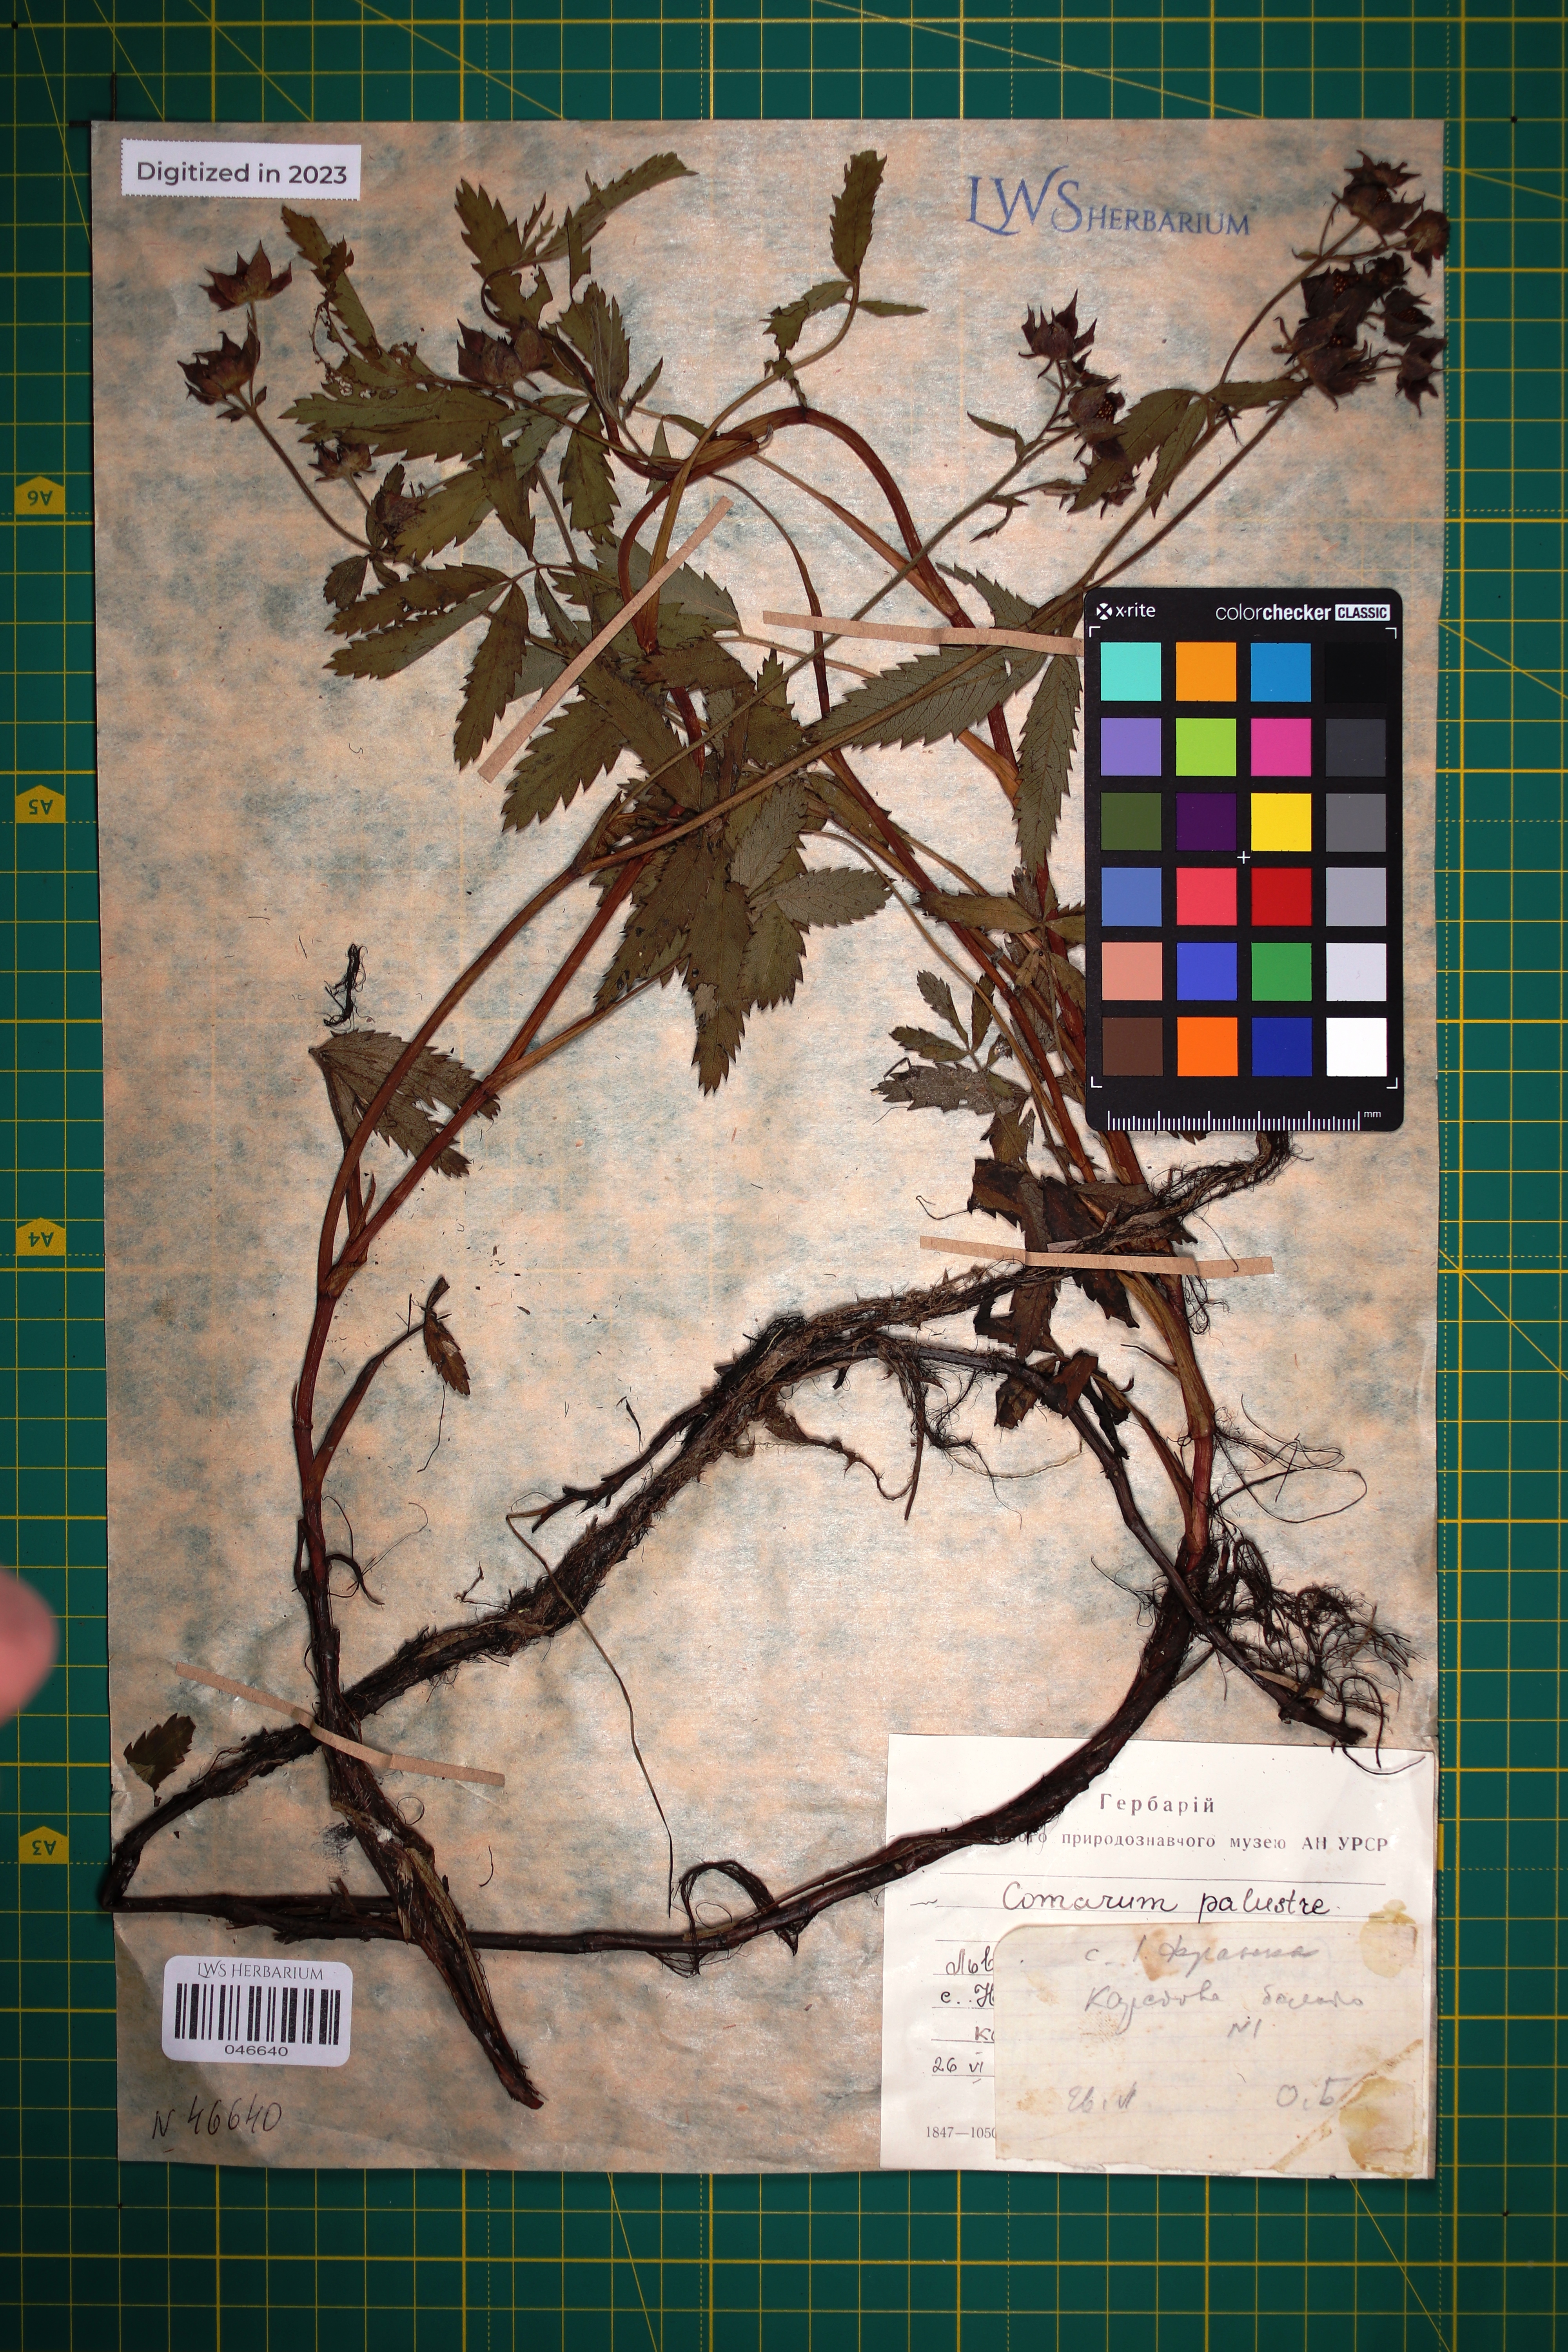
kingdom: Plantae
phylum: Tracheophyta
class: Magnoliopsida
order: Rosales
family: Rosaceae
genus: Comarum
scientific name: Comarum palustre
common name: Marsh cinquefoil
